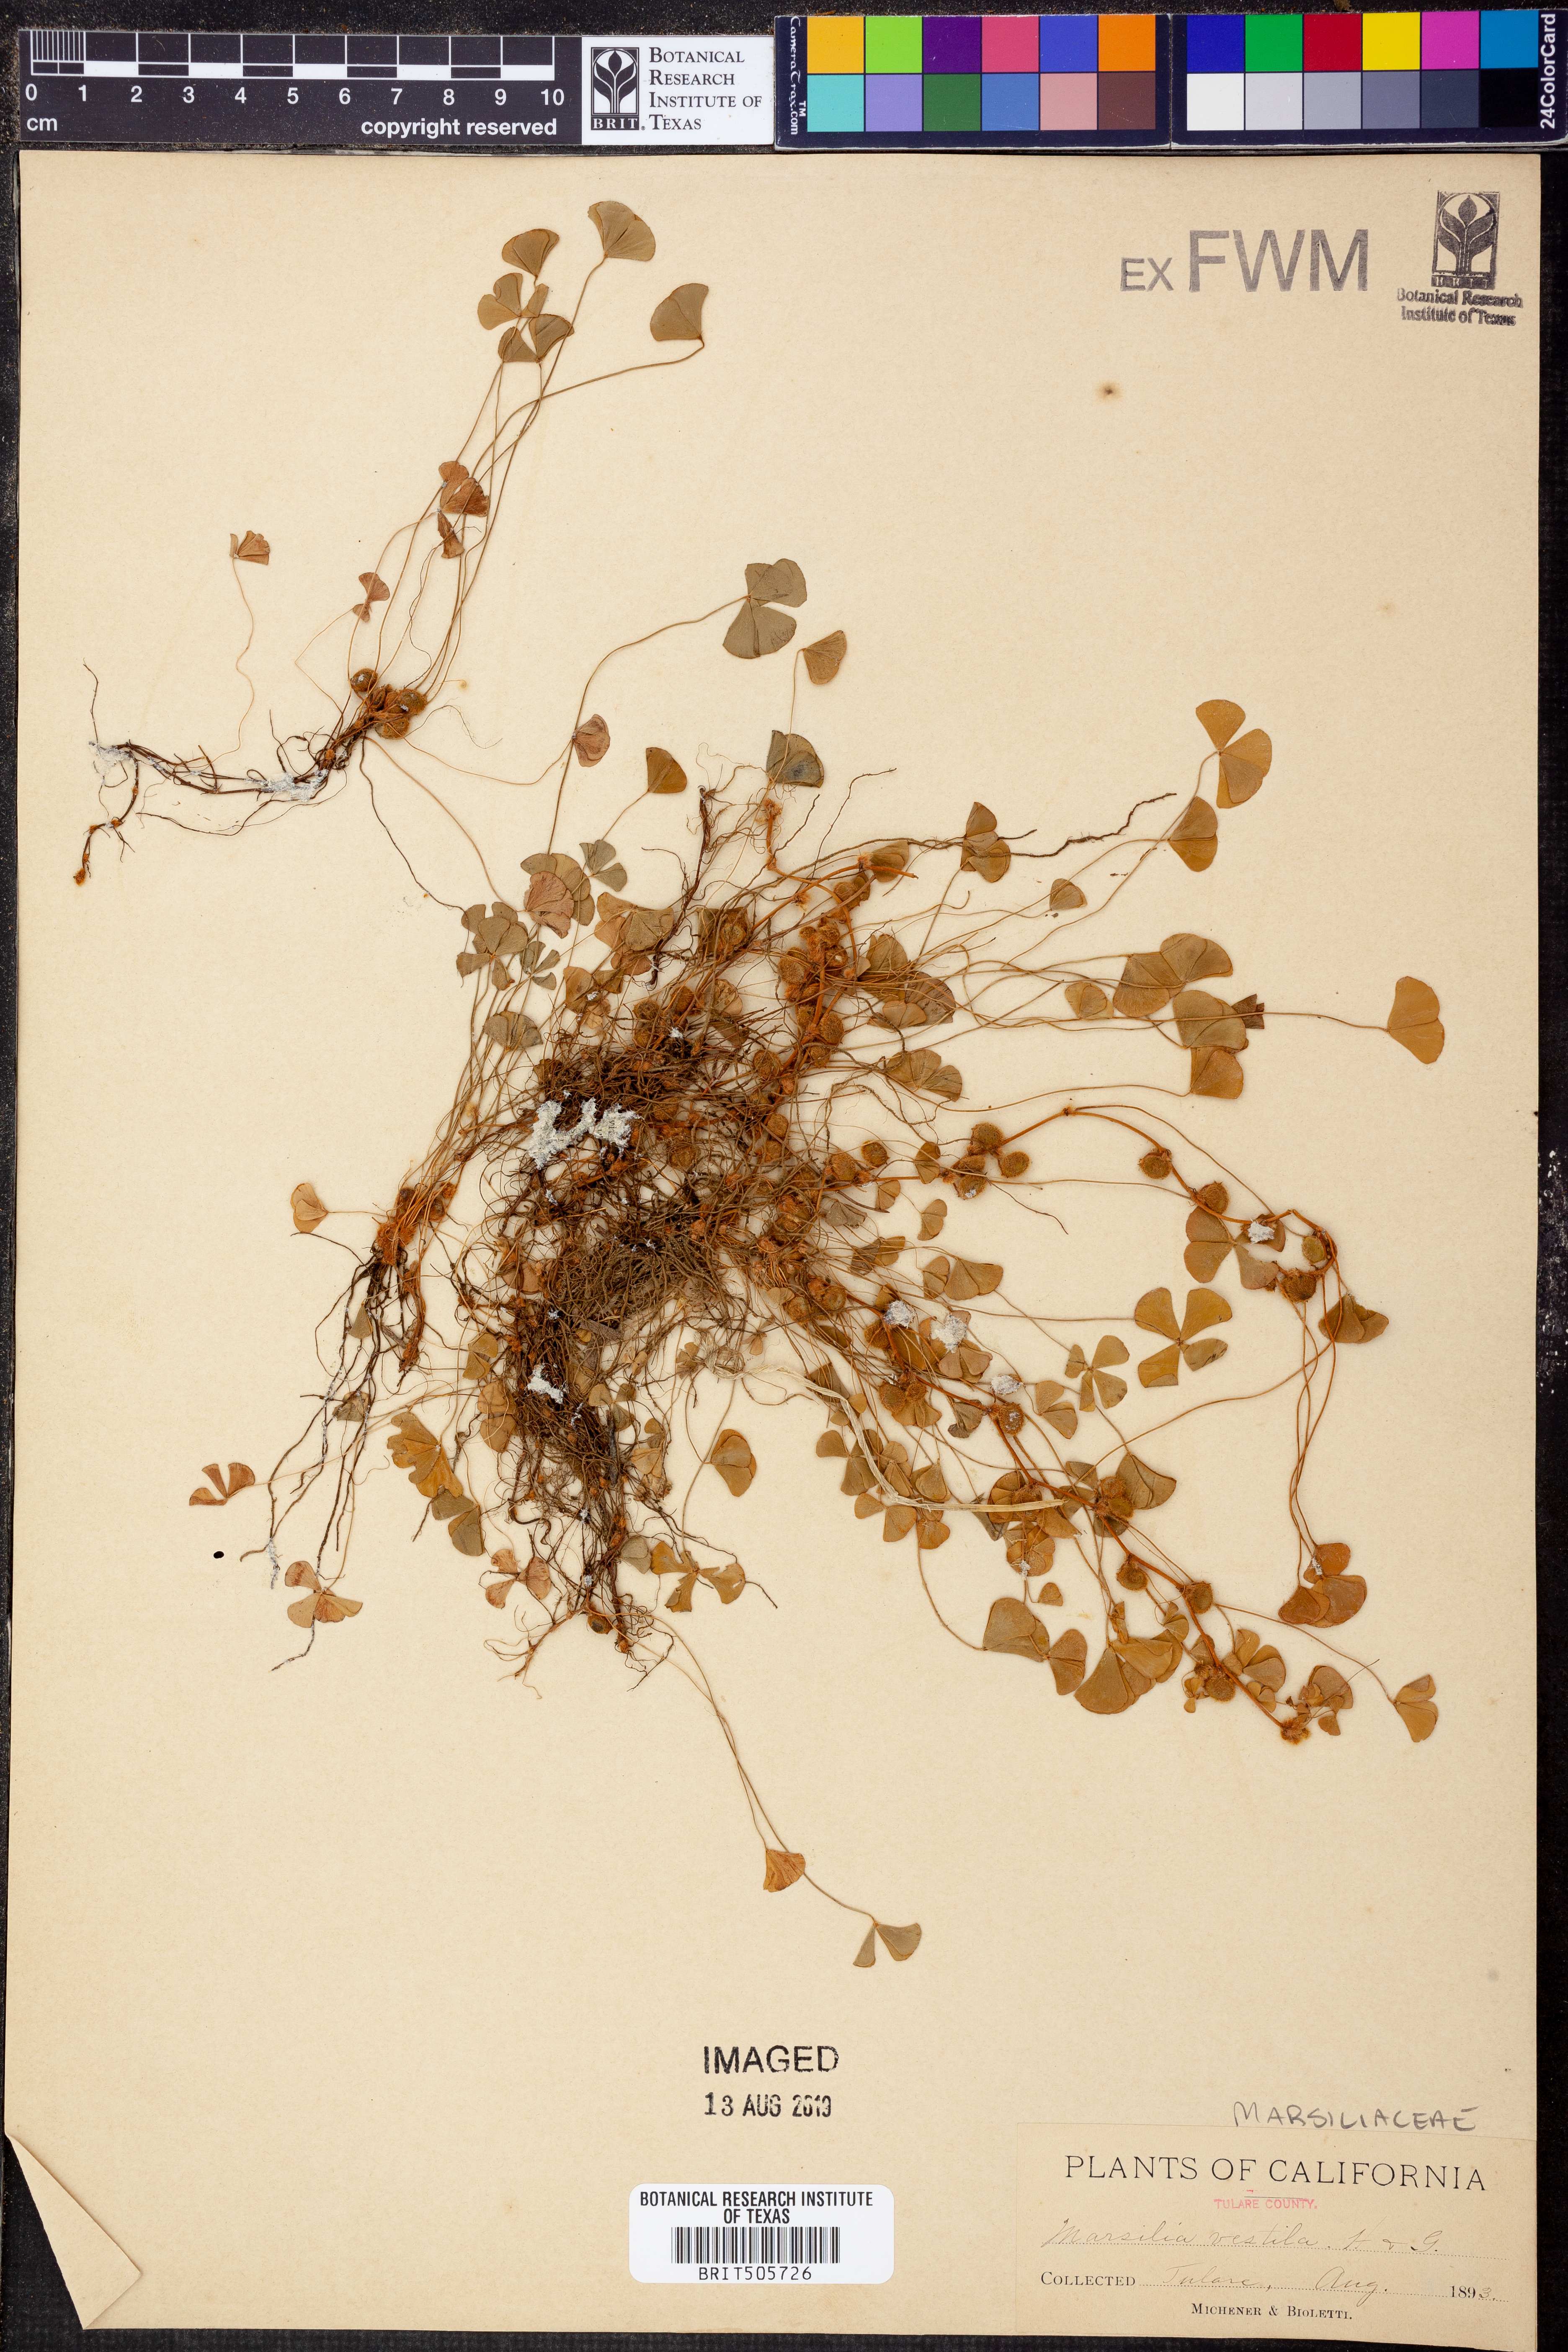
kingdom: Plantae
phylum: Tracheophyta
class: Polypodiopsida
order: Salviniales
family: Marsileaceae
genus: Marsilea
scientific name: Marsilea vestita
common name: Hooked-pepperwort
